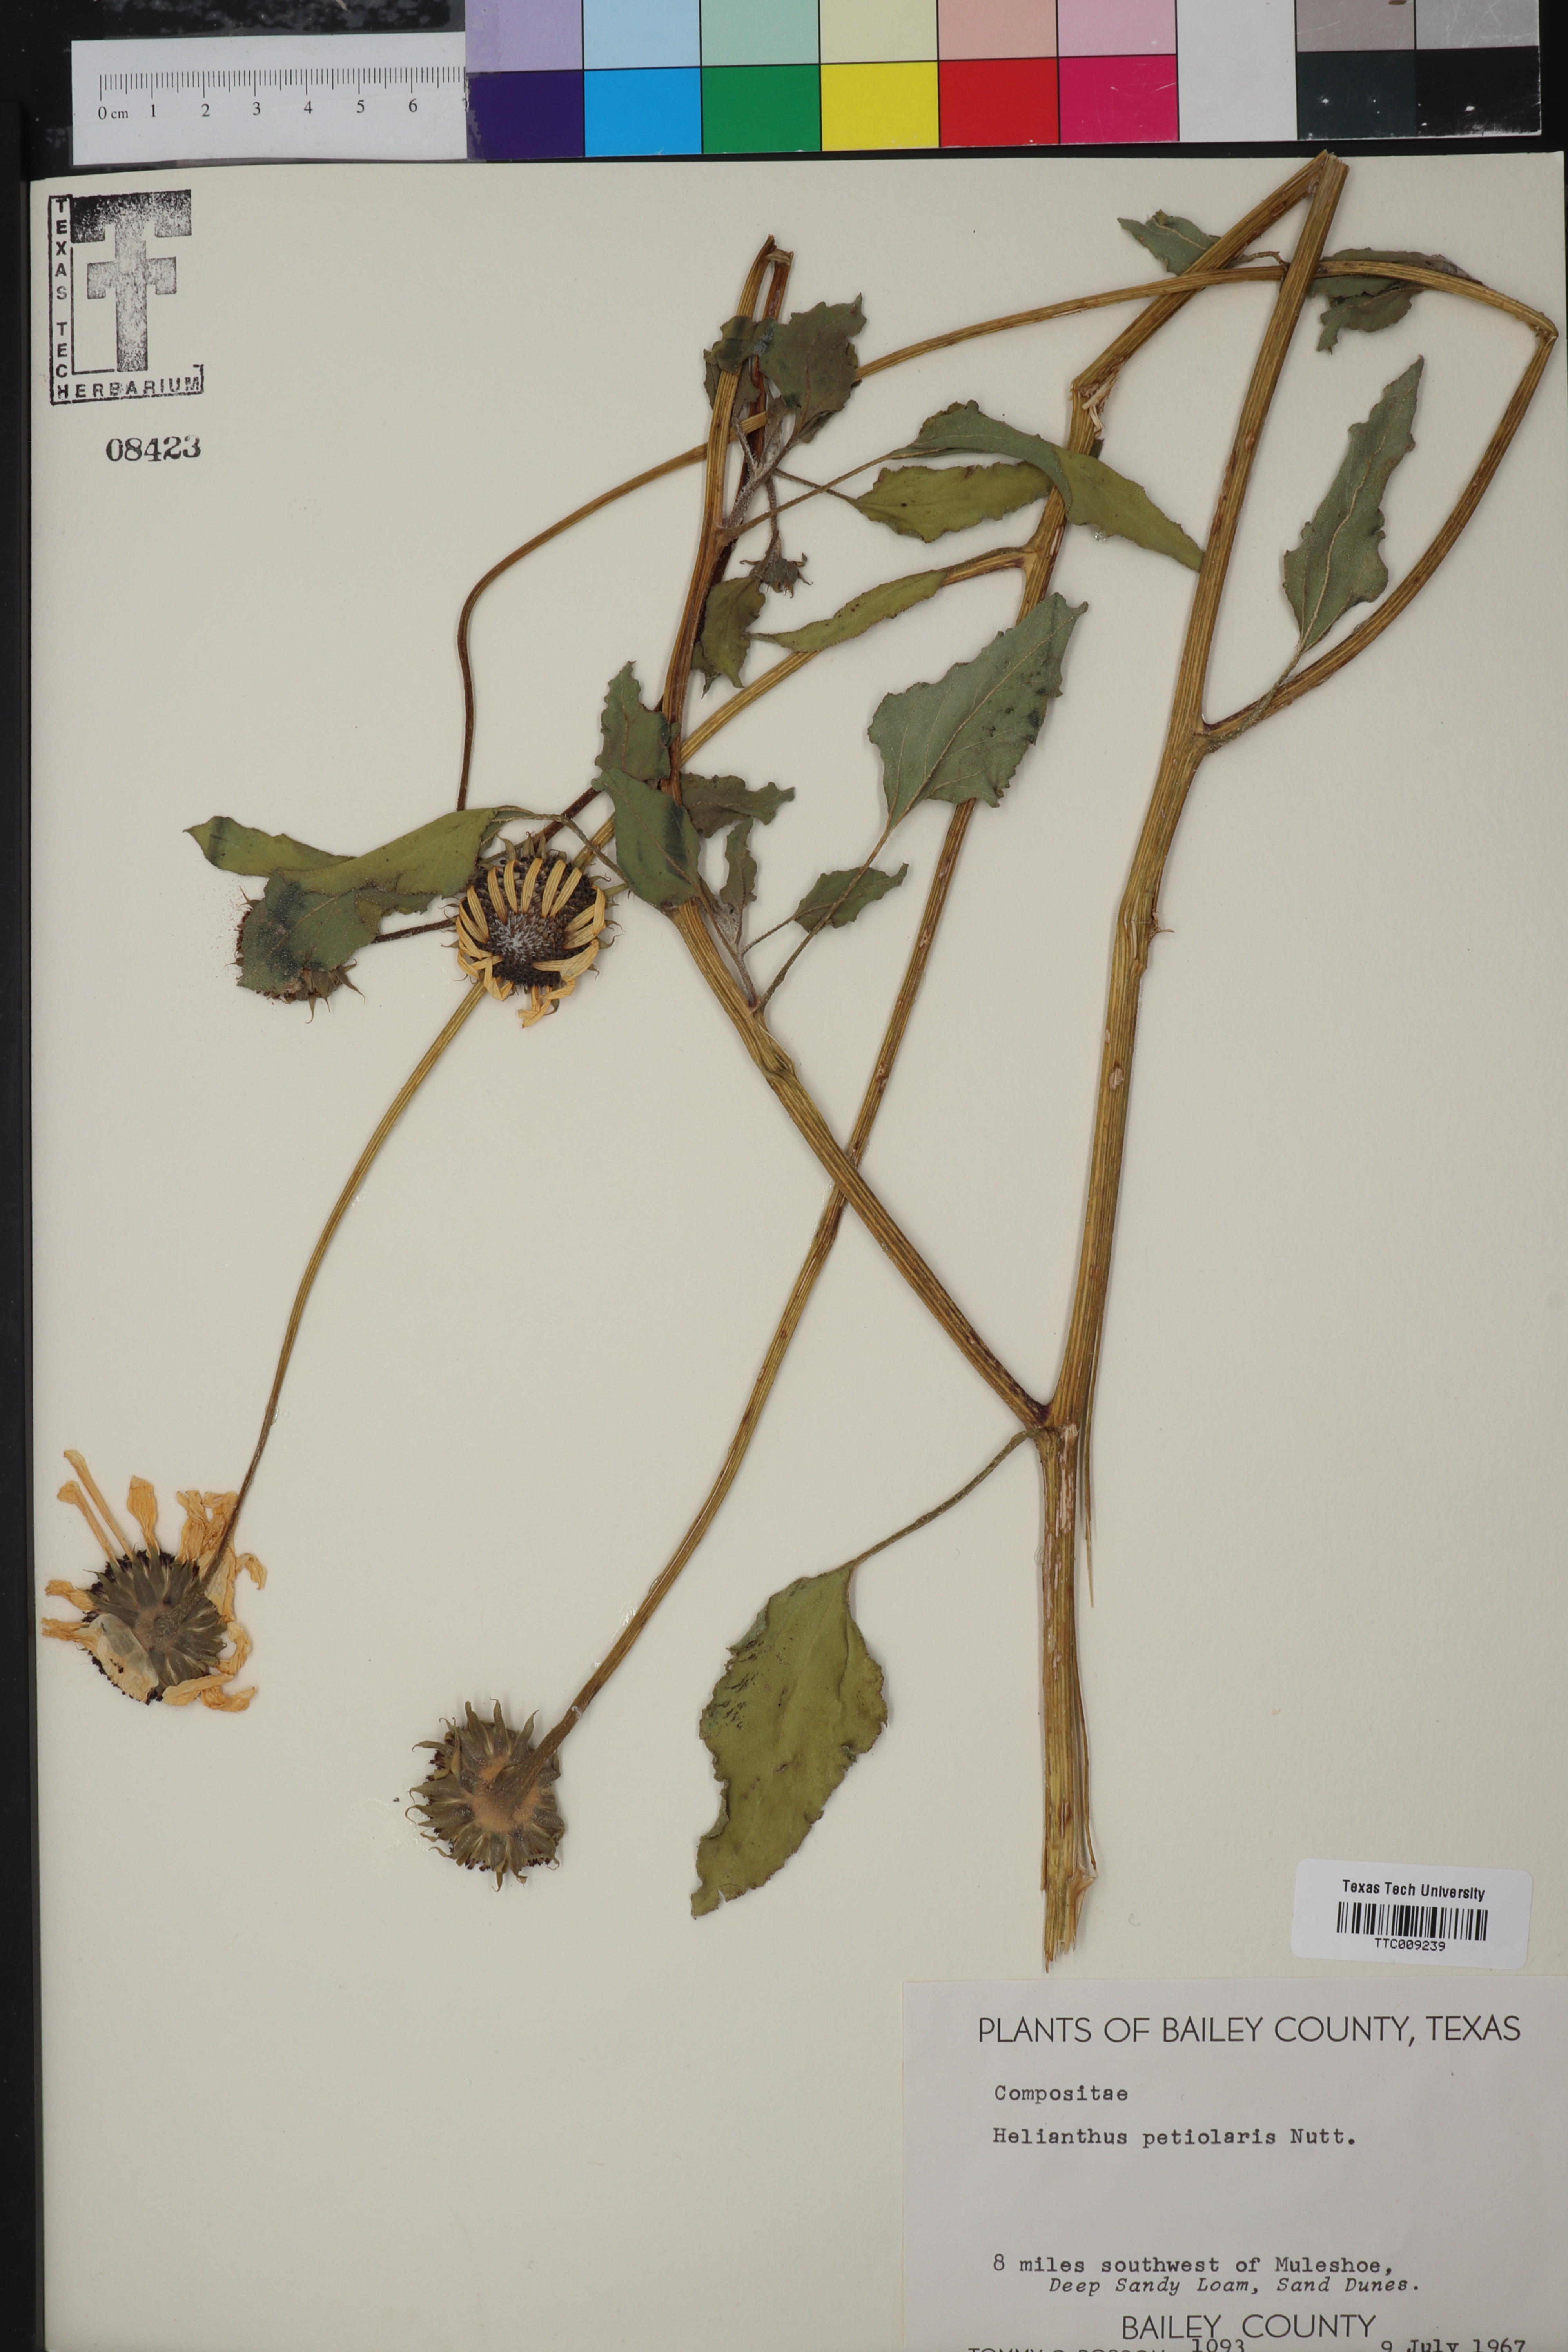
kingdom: Plantae
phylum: Tracheophyta
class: Magnoliopsida
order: Asterales
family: Asteraceae
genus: Helianthus
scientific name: Helianthus petiolaris
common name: Lesser sunflower
